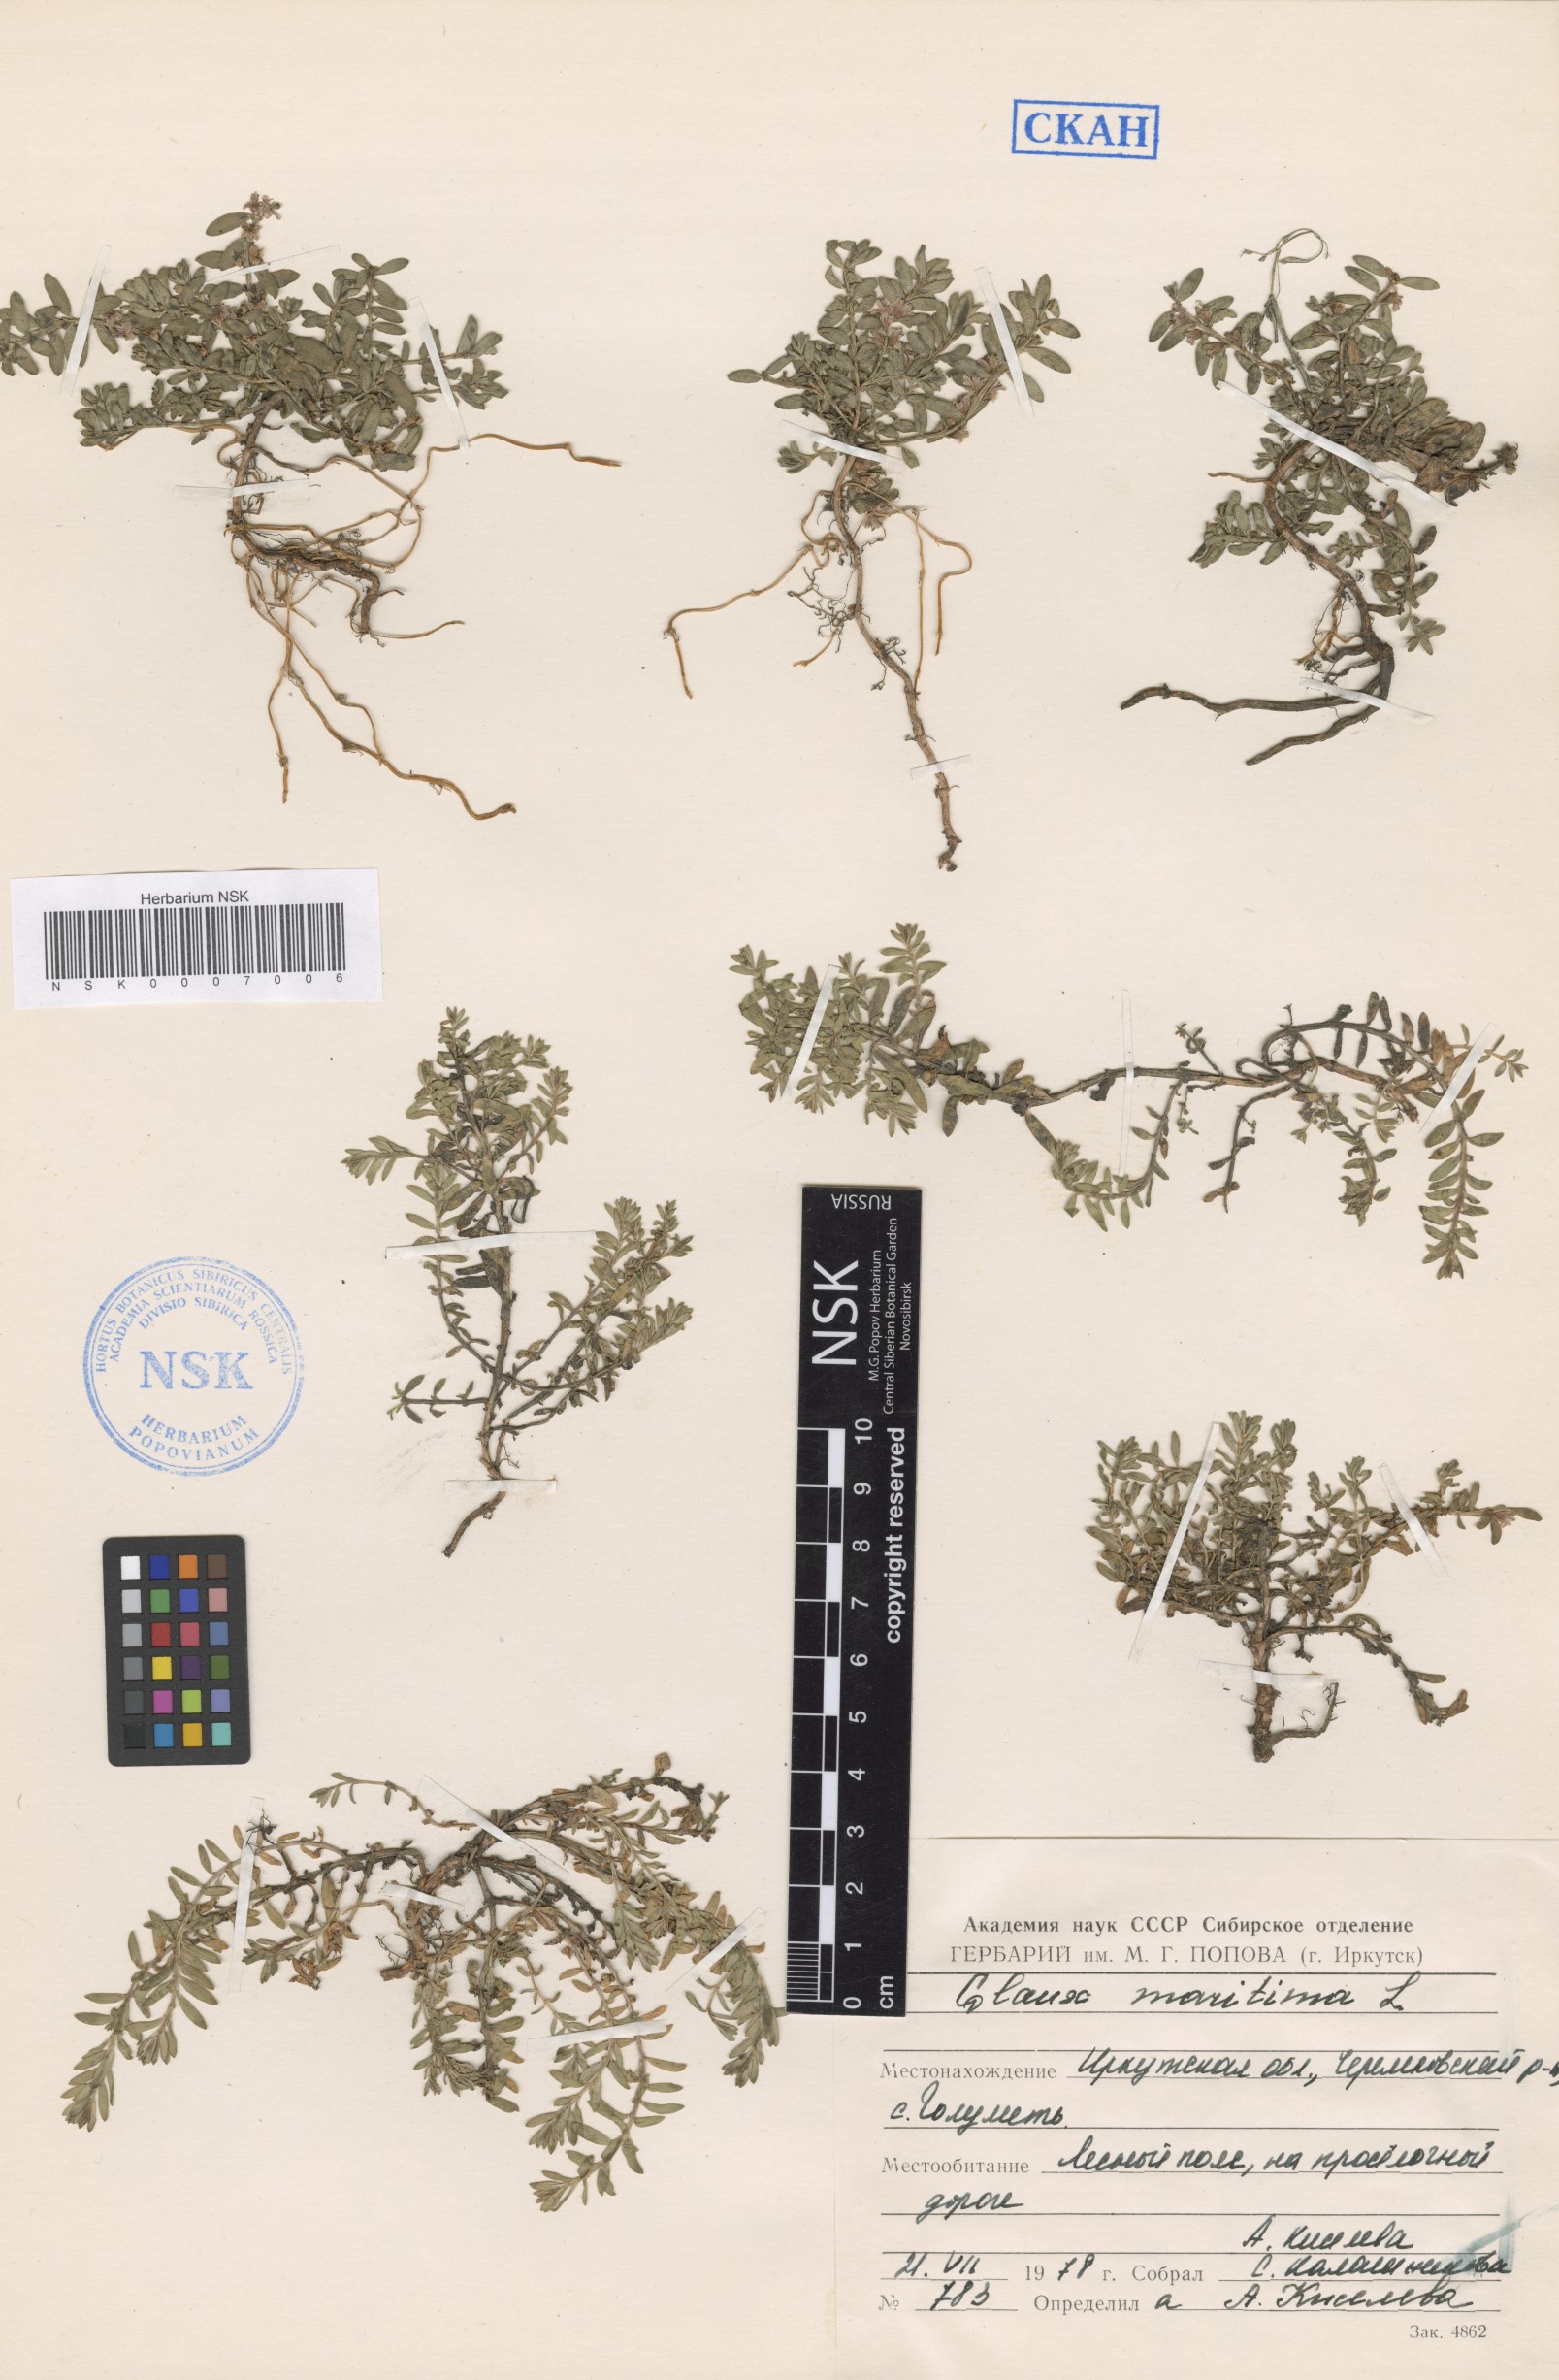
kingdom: Plantae
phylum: Tracheophyta
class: Magnoliopsida
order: Ericales
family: Primulaceae
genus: Lysimachia
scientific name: Lysimachia maritima
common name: Sea milkwort
